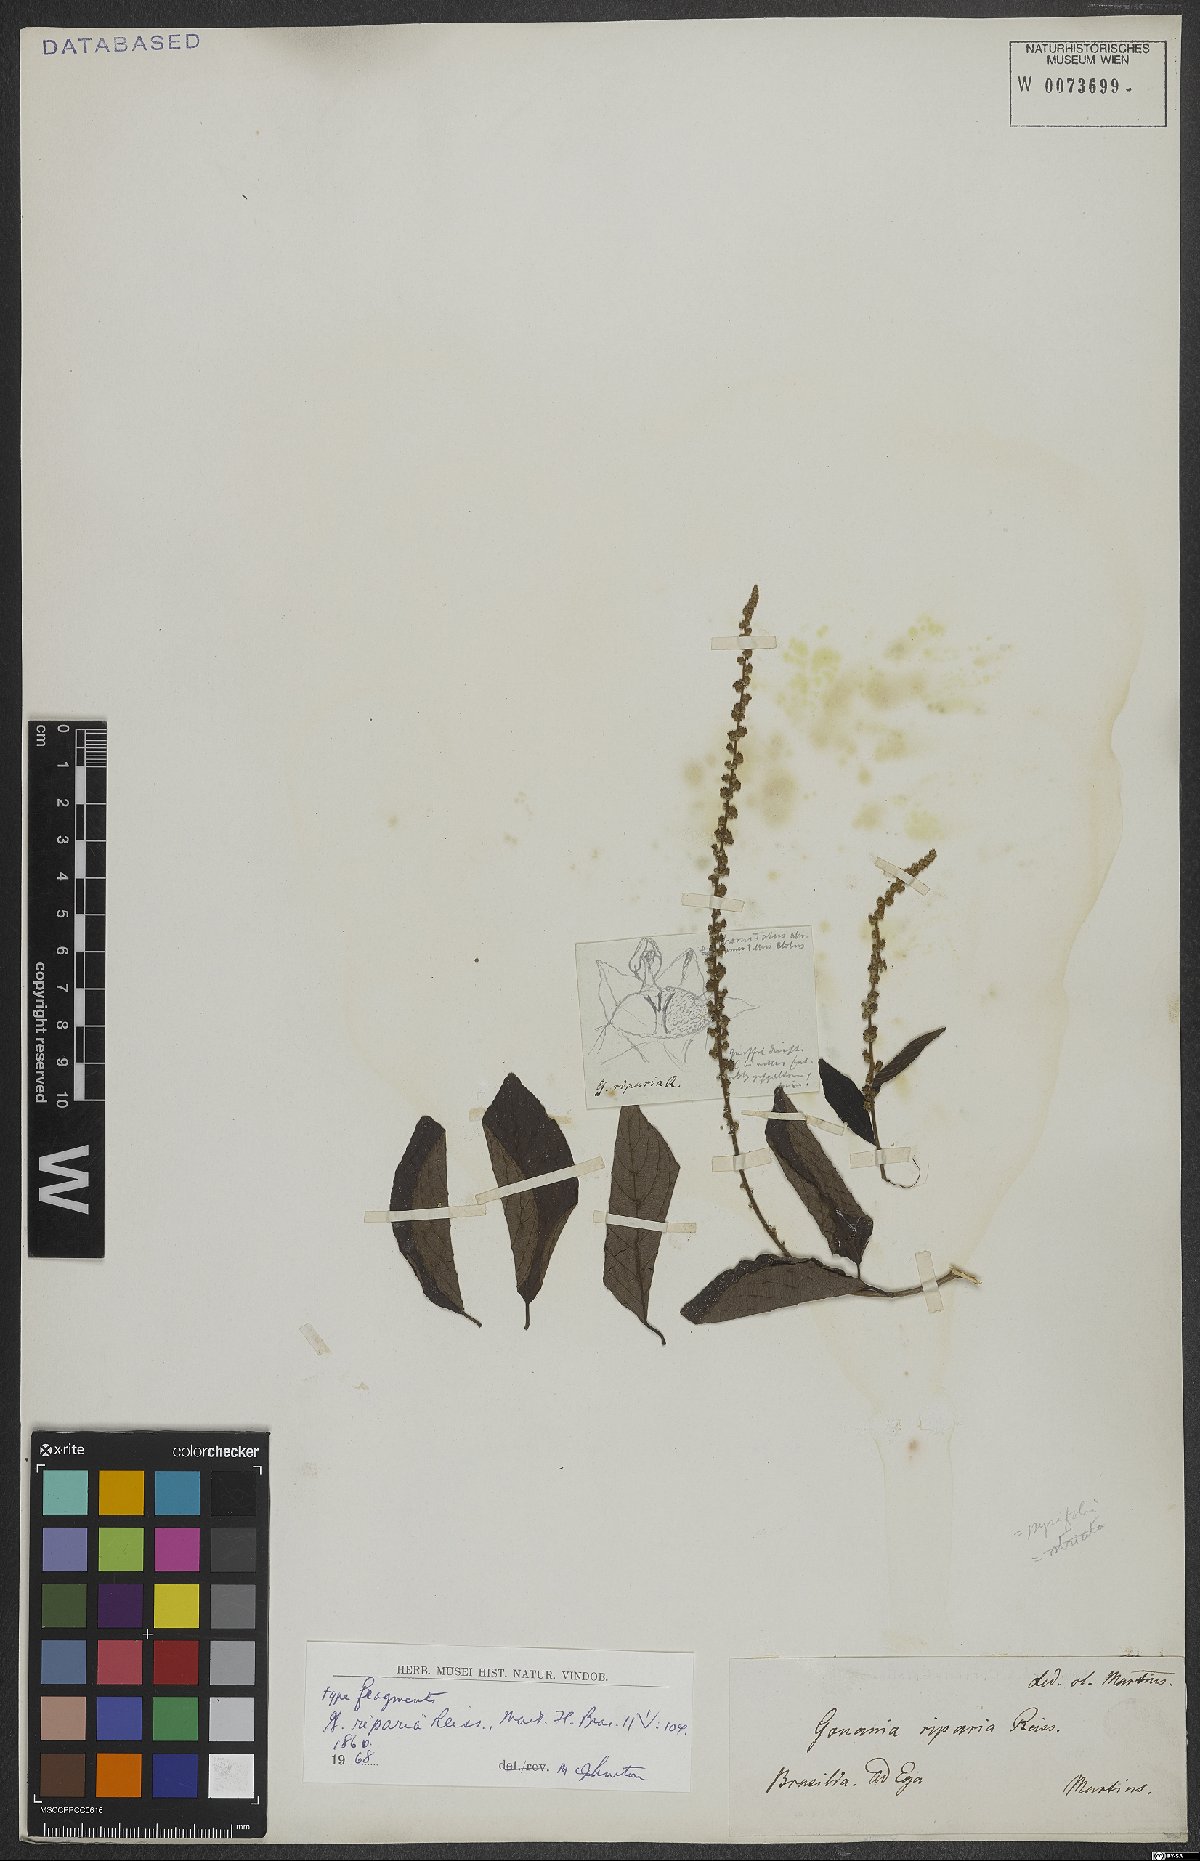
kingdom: Plantae
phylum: Tracheophyta
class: Magnoliopsida
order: Rosales
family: Rhamnaceae
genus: Gouania
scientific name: Gouania riparia
